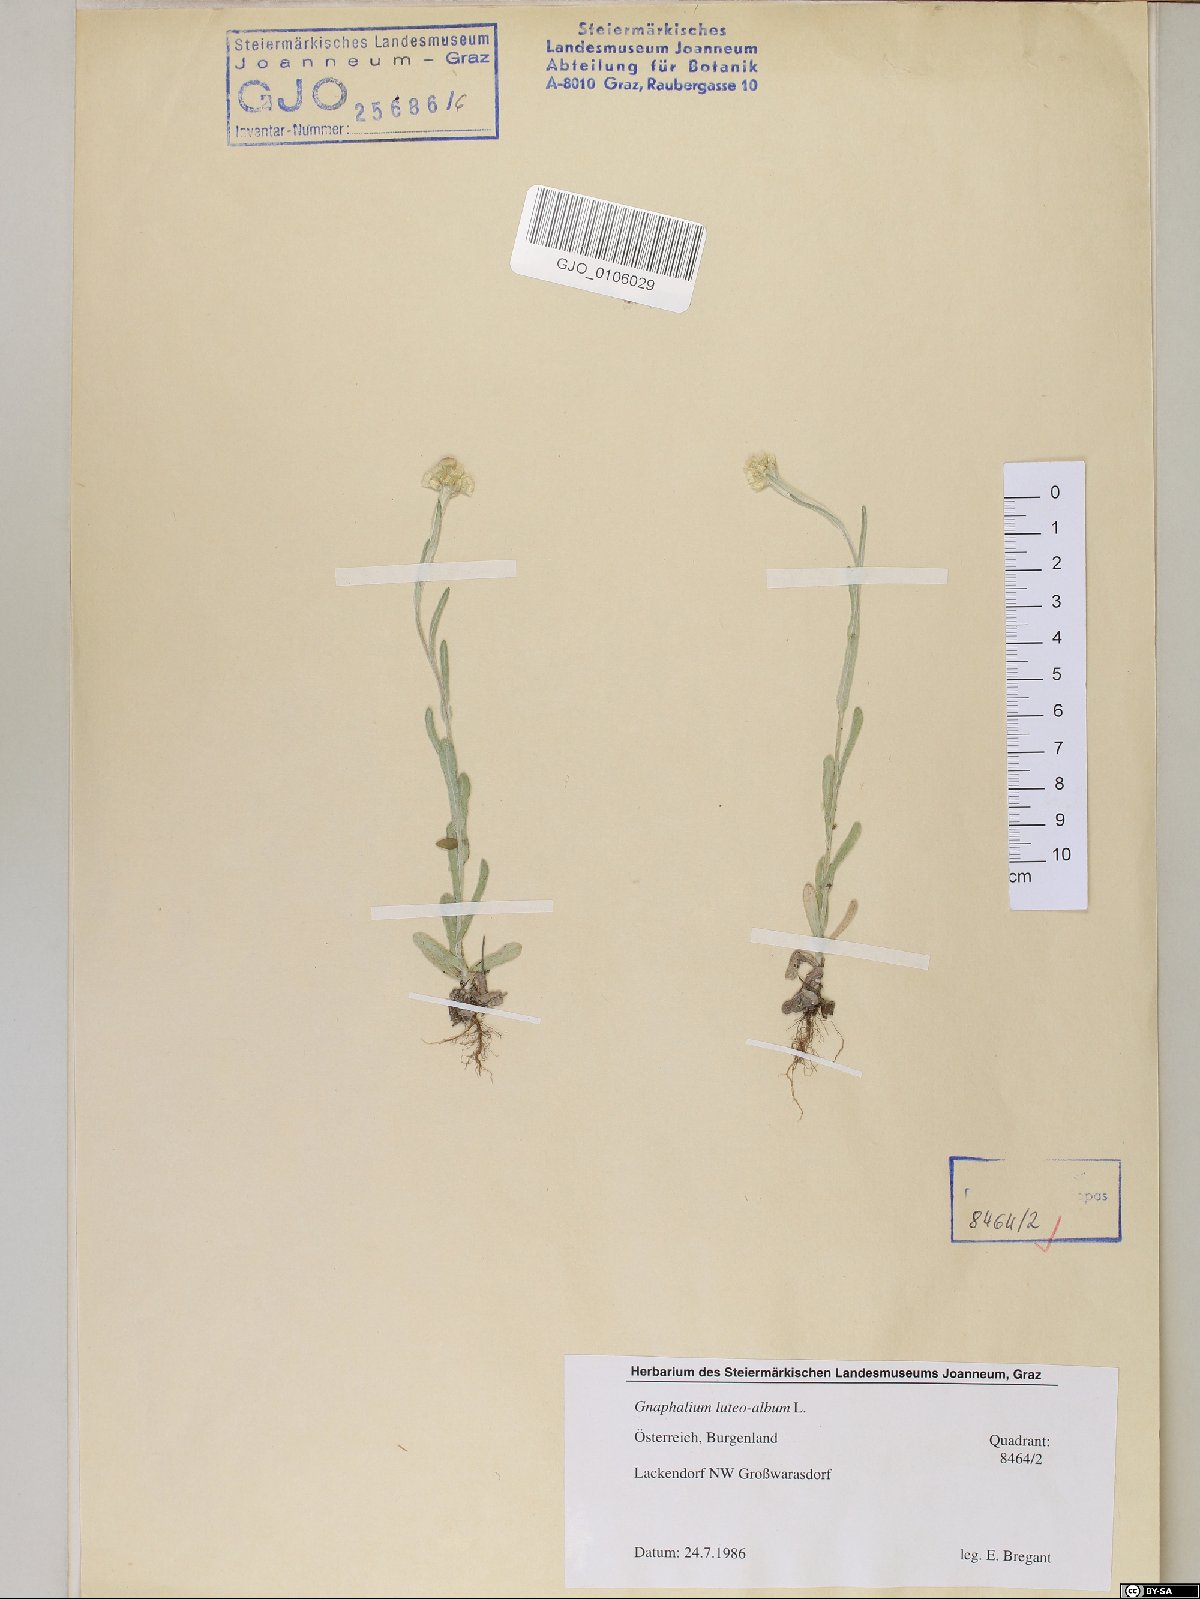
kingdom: Plantae
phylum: Tracheophyta
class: Magnoliopsida
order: Asterales
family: Asteraceae
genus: Helichrysum
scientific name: Helichrysum luteoalbum
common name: Daisy
